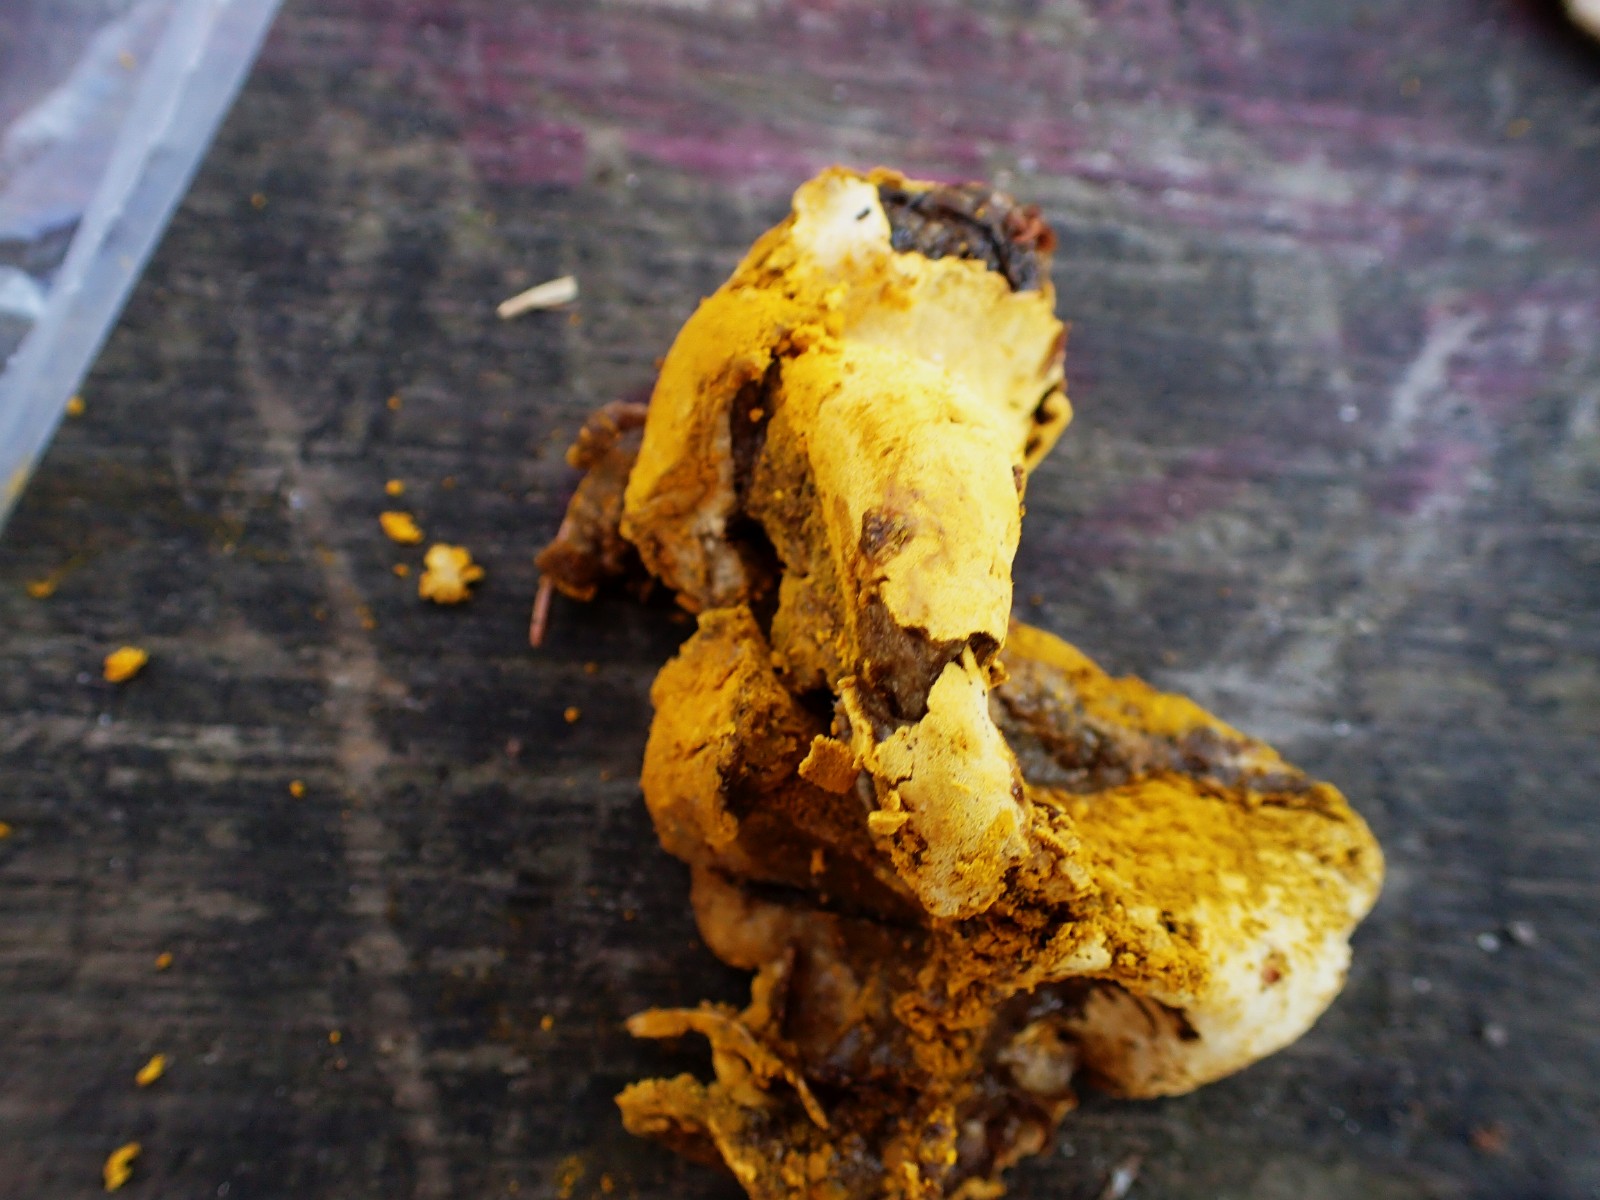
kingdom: Fungi
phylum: Ascomycota
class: Sordariomycetes
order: Hypocreales
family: Hypocreaceae
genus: Hypomyces
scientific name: Hypomyces
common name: snylteskorpe
